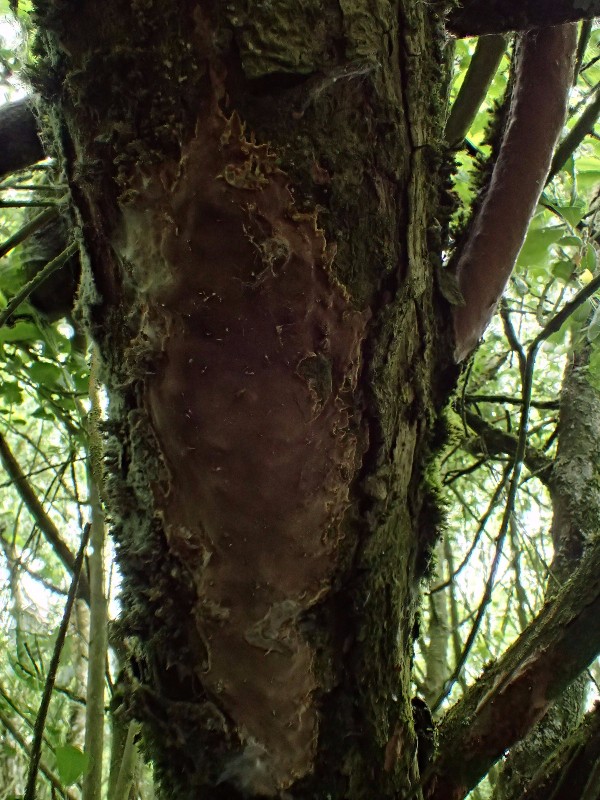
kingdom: Fungi
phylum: Basidiomycota
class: Agaricomycetes
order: Hymenochaetales
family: Hymenochaetaceae
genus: Fomitiporia
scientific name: Fomitiporia punctata
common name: pude-ildporesvamp
